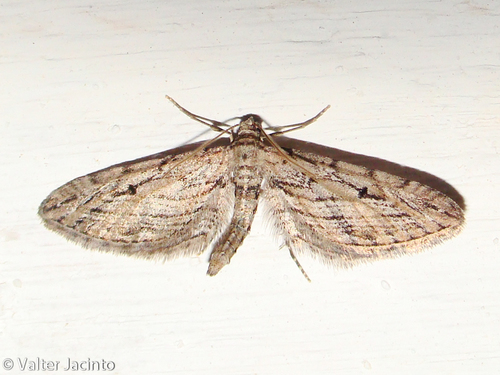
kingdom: Animalia
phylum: Arthropoda
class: Insecta
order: Lepidoptera
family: Geometridae
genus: Eupithecia
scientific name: Eupithecia rosmarinata
